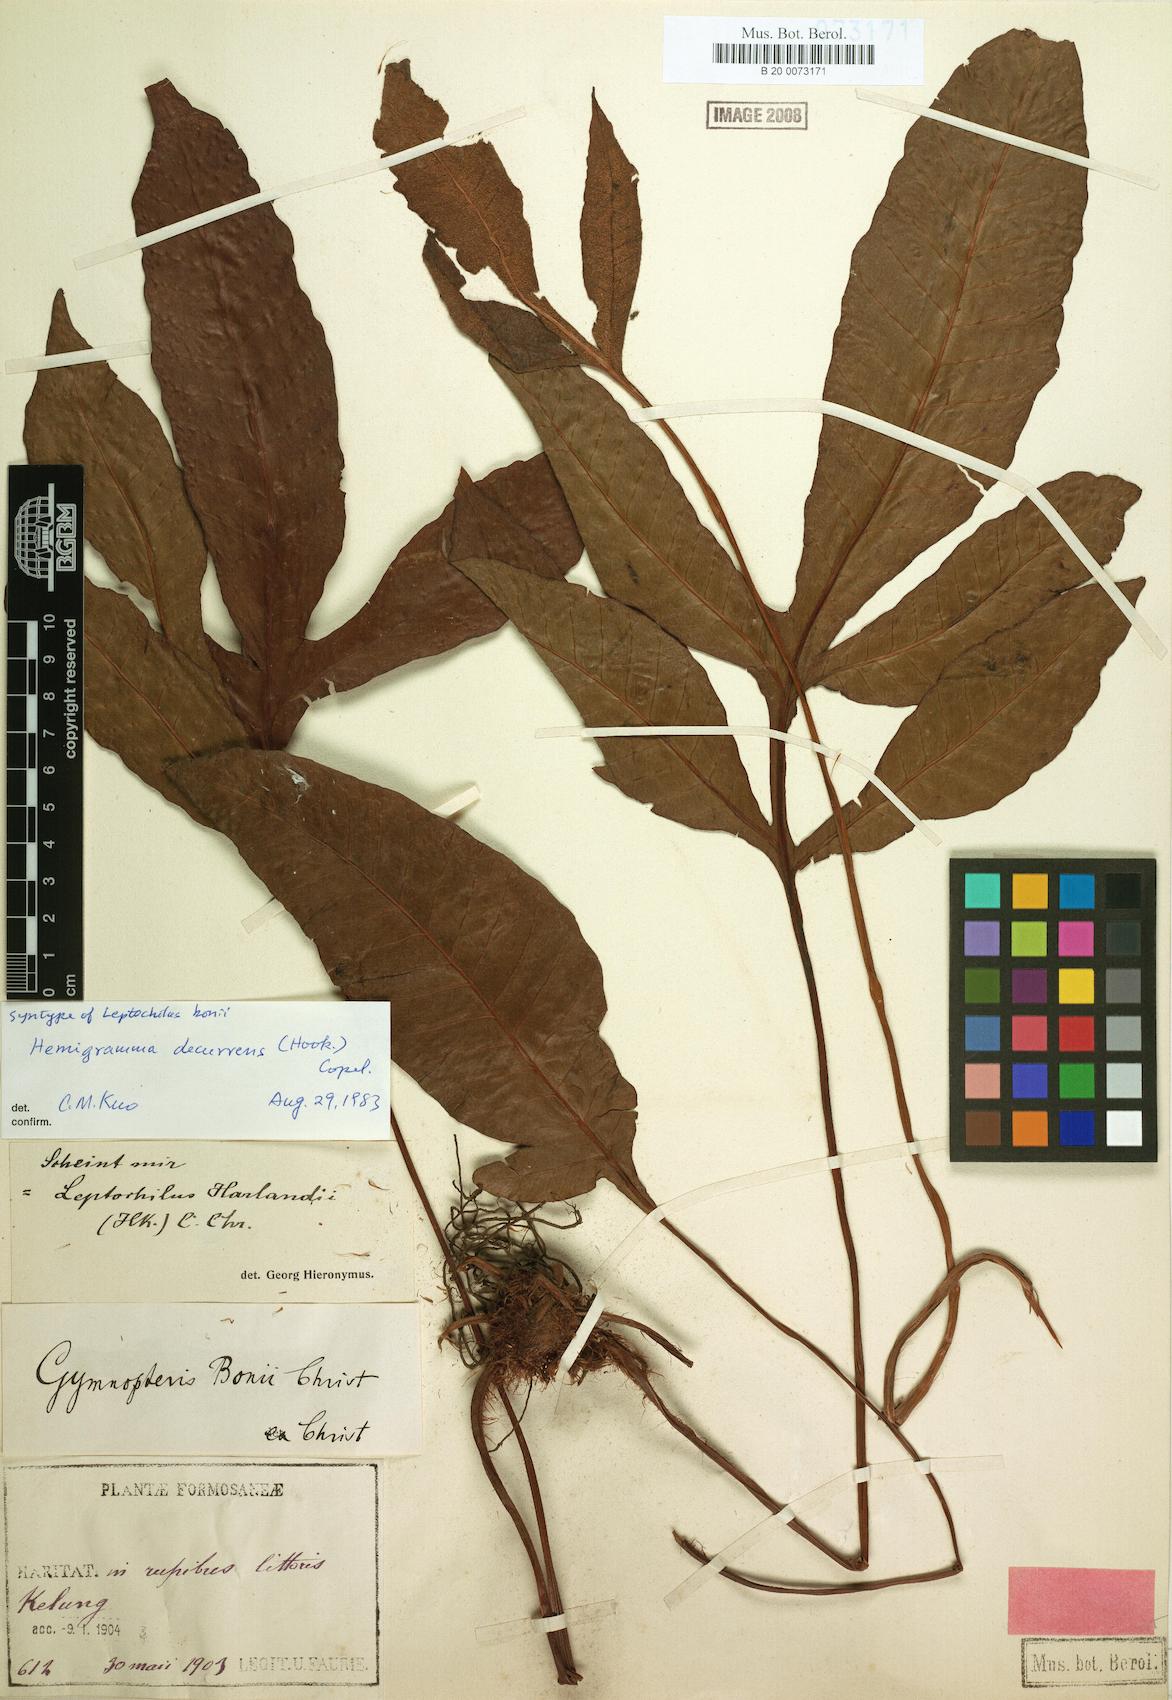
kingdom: Plantae
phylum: Tracheophyta
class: Polypodiopsida
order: Polypodiales
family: Tectariaceae
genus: Tectaria
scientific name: Tectaria decurrens
